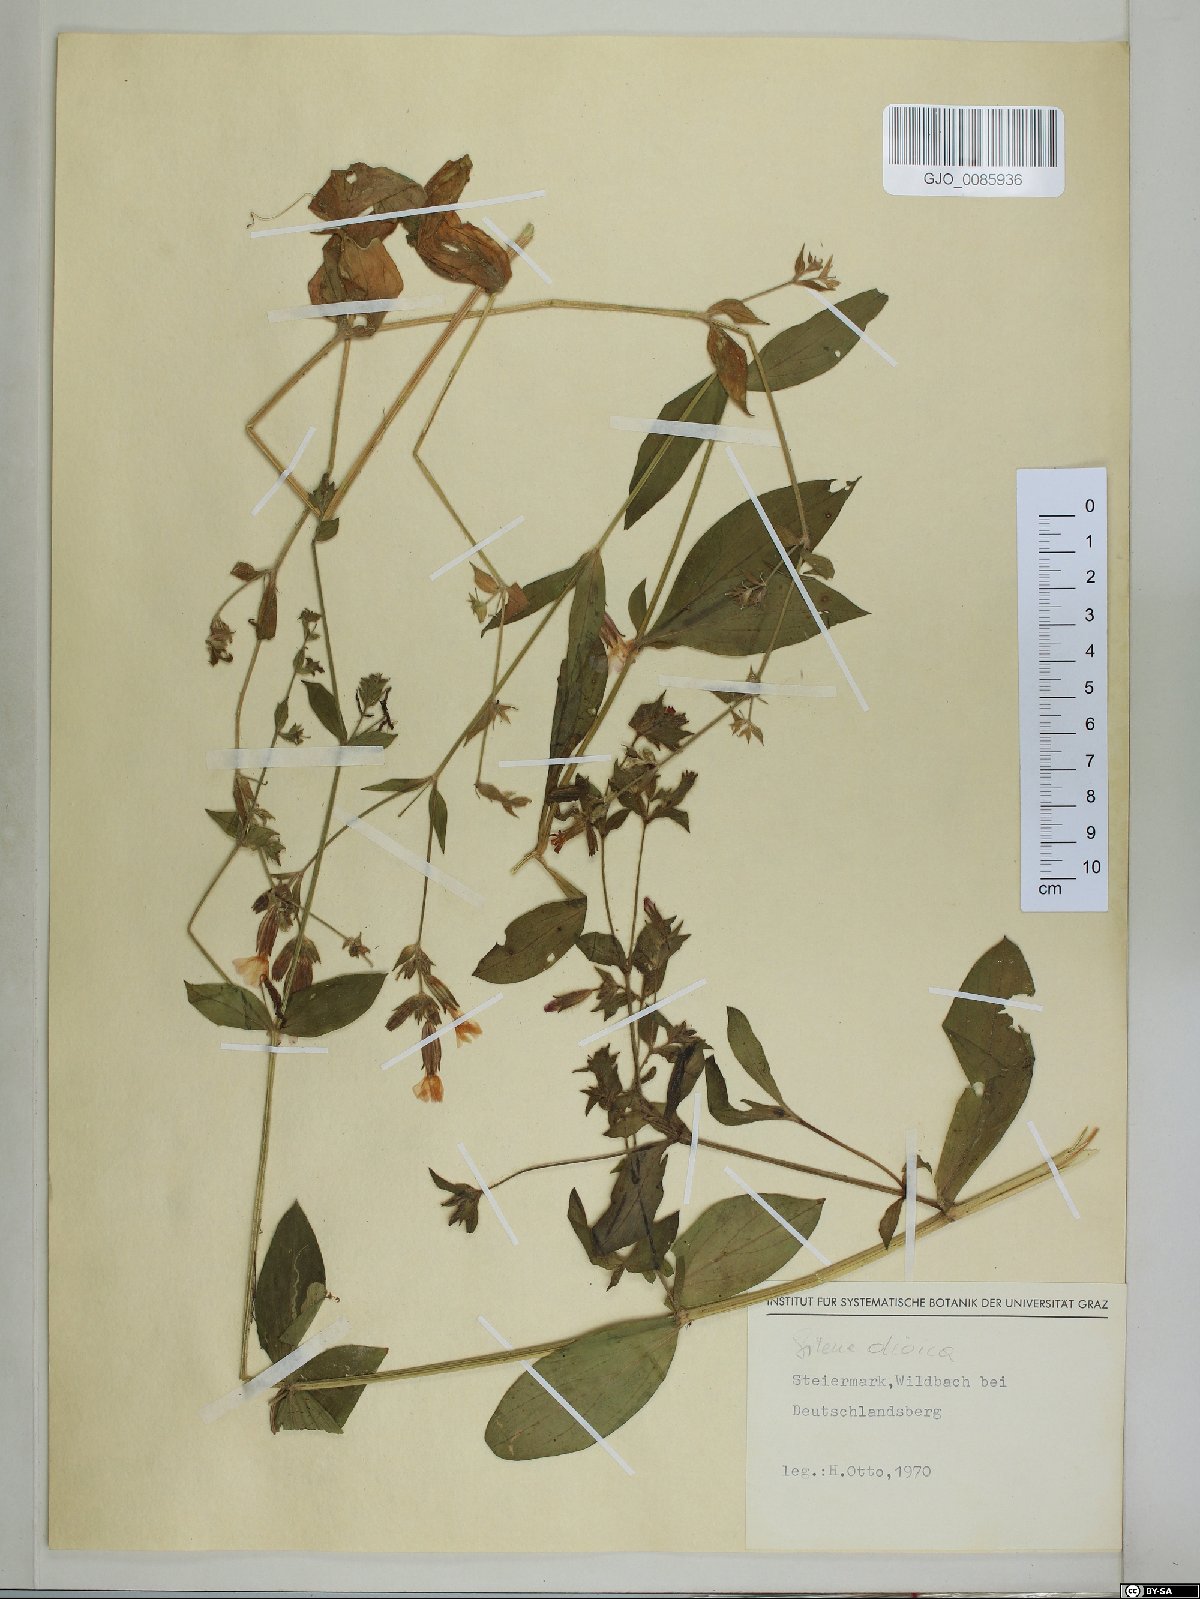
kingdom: Plantae
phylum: Tracheophyta
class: Magnoliopsida
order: Caryophyllales
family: Caryophyllaceae
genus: Silene
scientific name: Silene dioica
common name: Red campion
